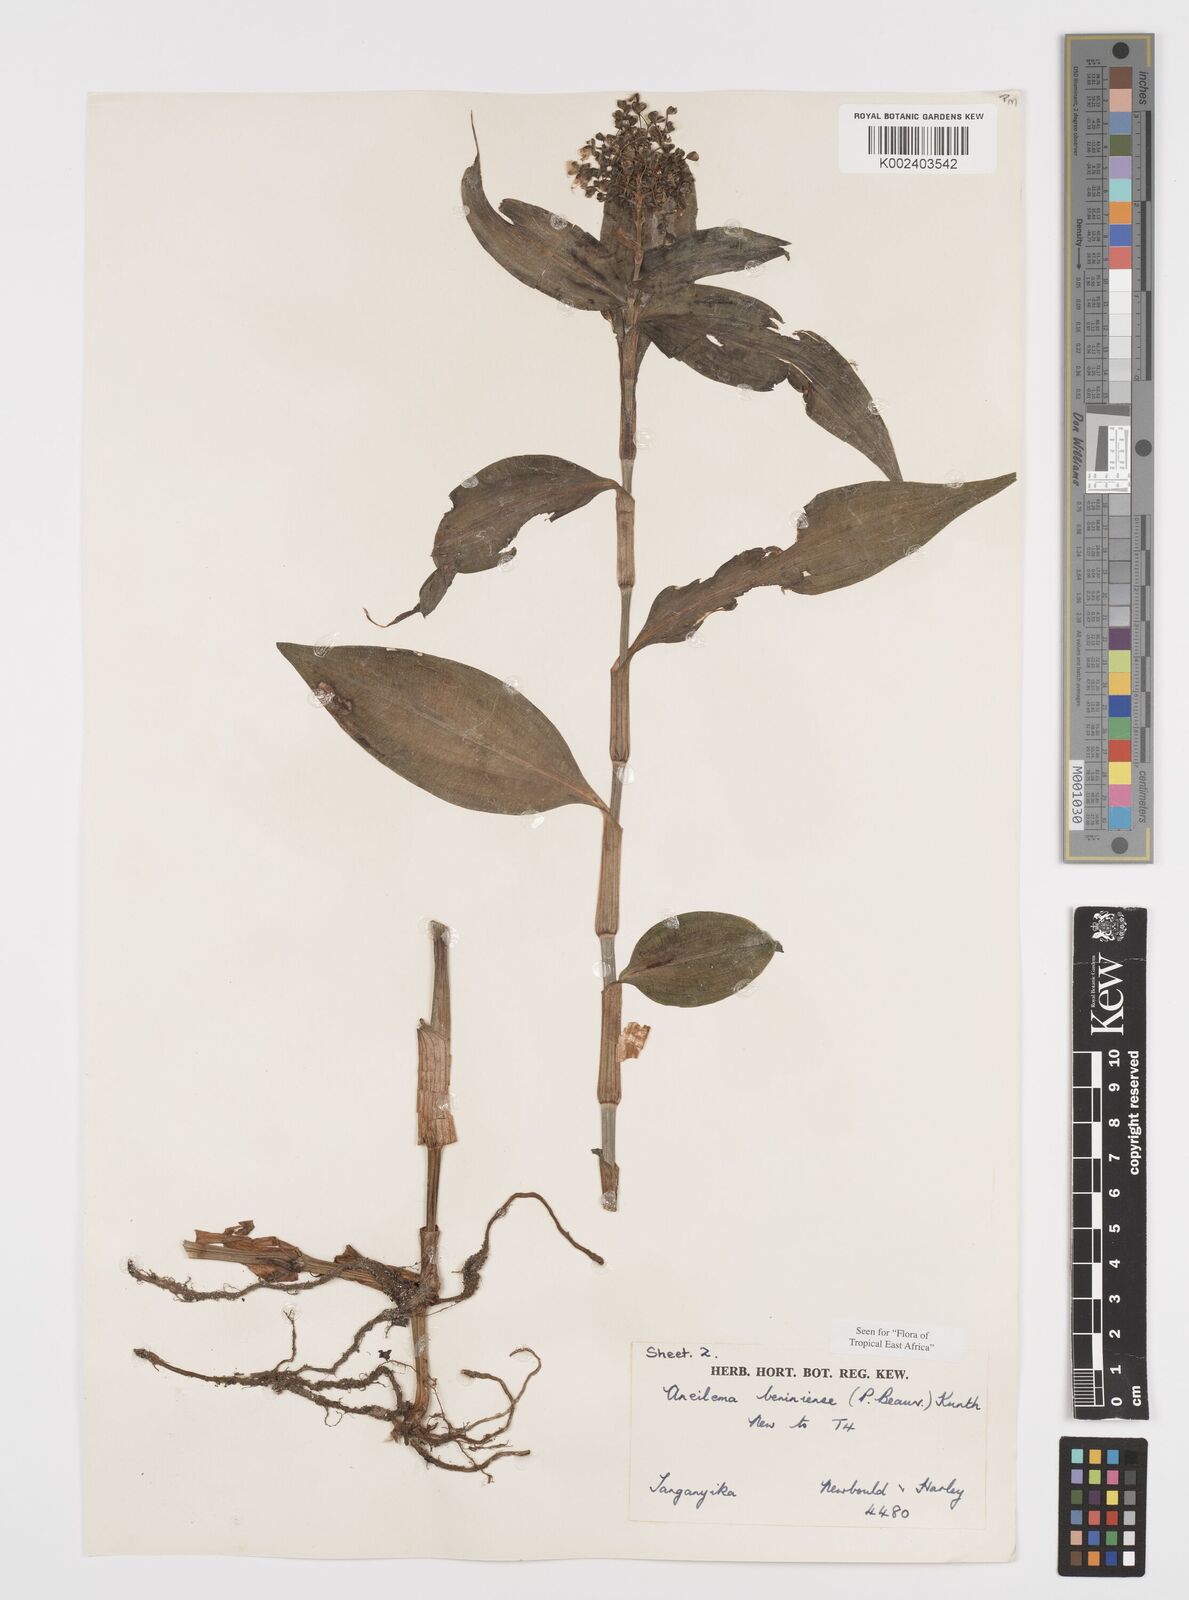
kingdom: Plantae
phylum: Tracheophyta
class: Liliopsida
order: Commelinales
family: Commelinaceae
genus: Aneilema
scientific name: Aneilema beniniense
